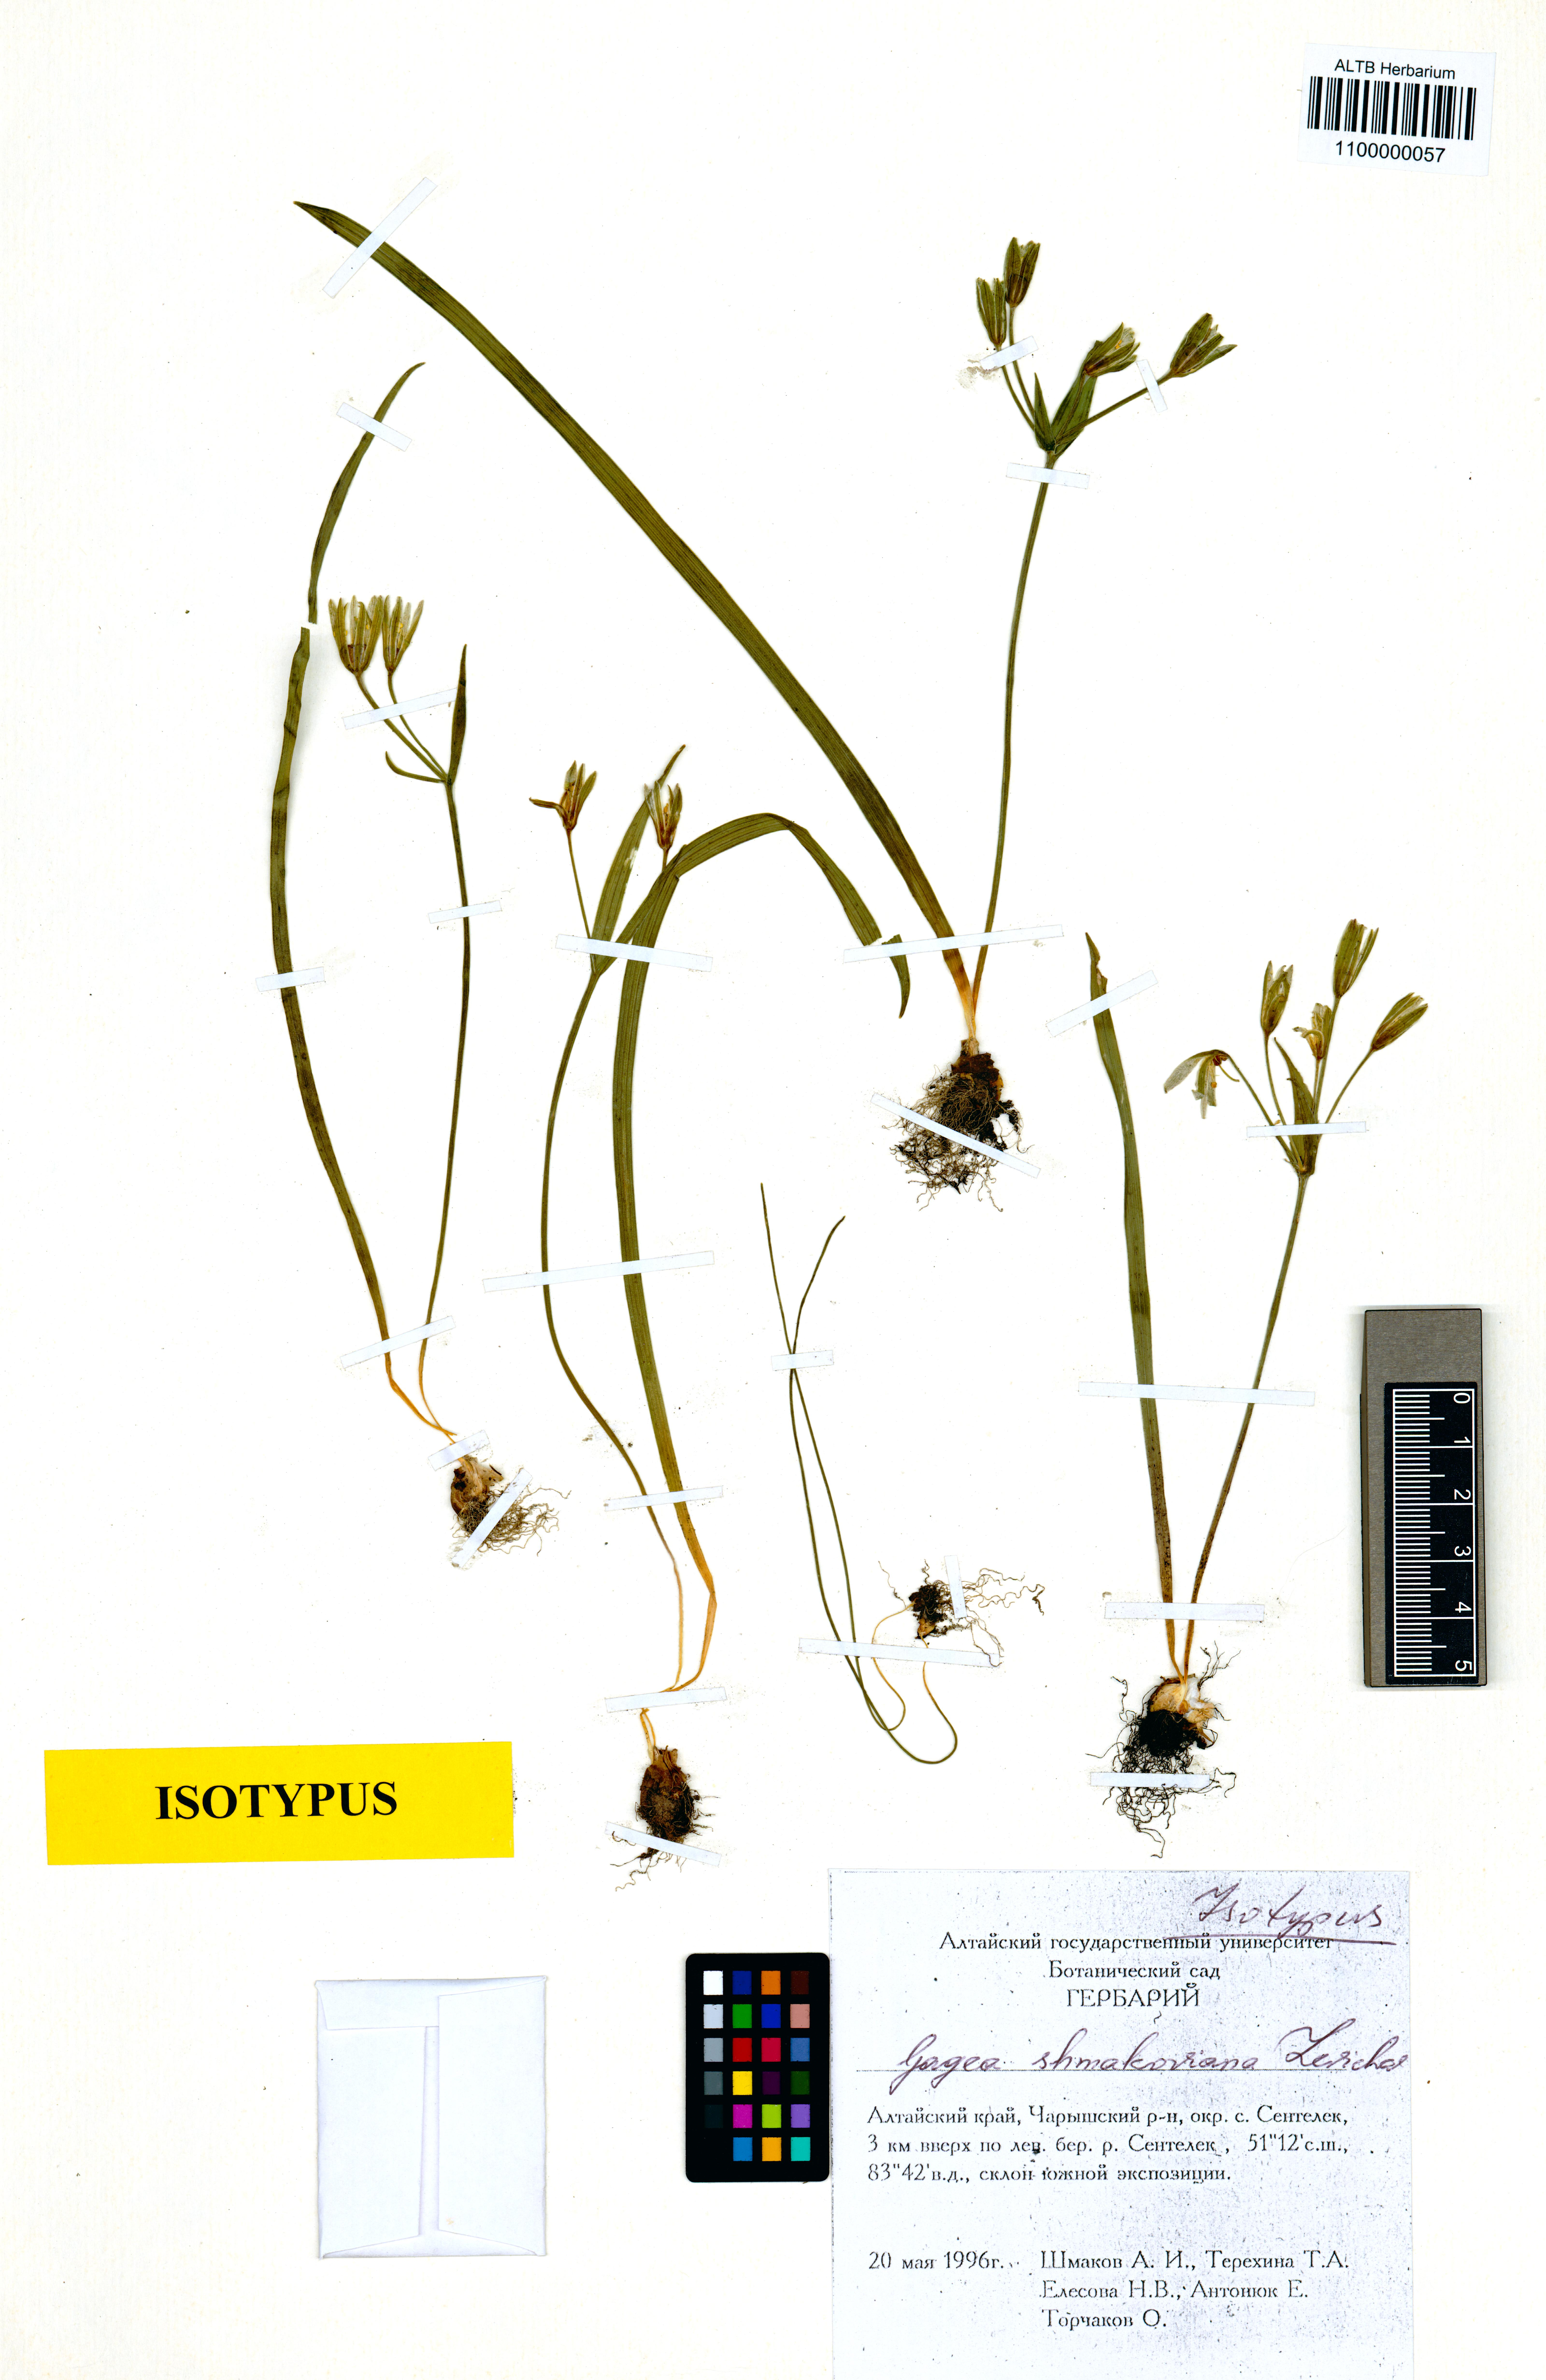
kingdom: Plantae
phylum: Tracheophyta
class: Liliopsida
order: Liliales
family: Liliaceae
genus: Gagea
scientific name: Gagea shmakoviana
